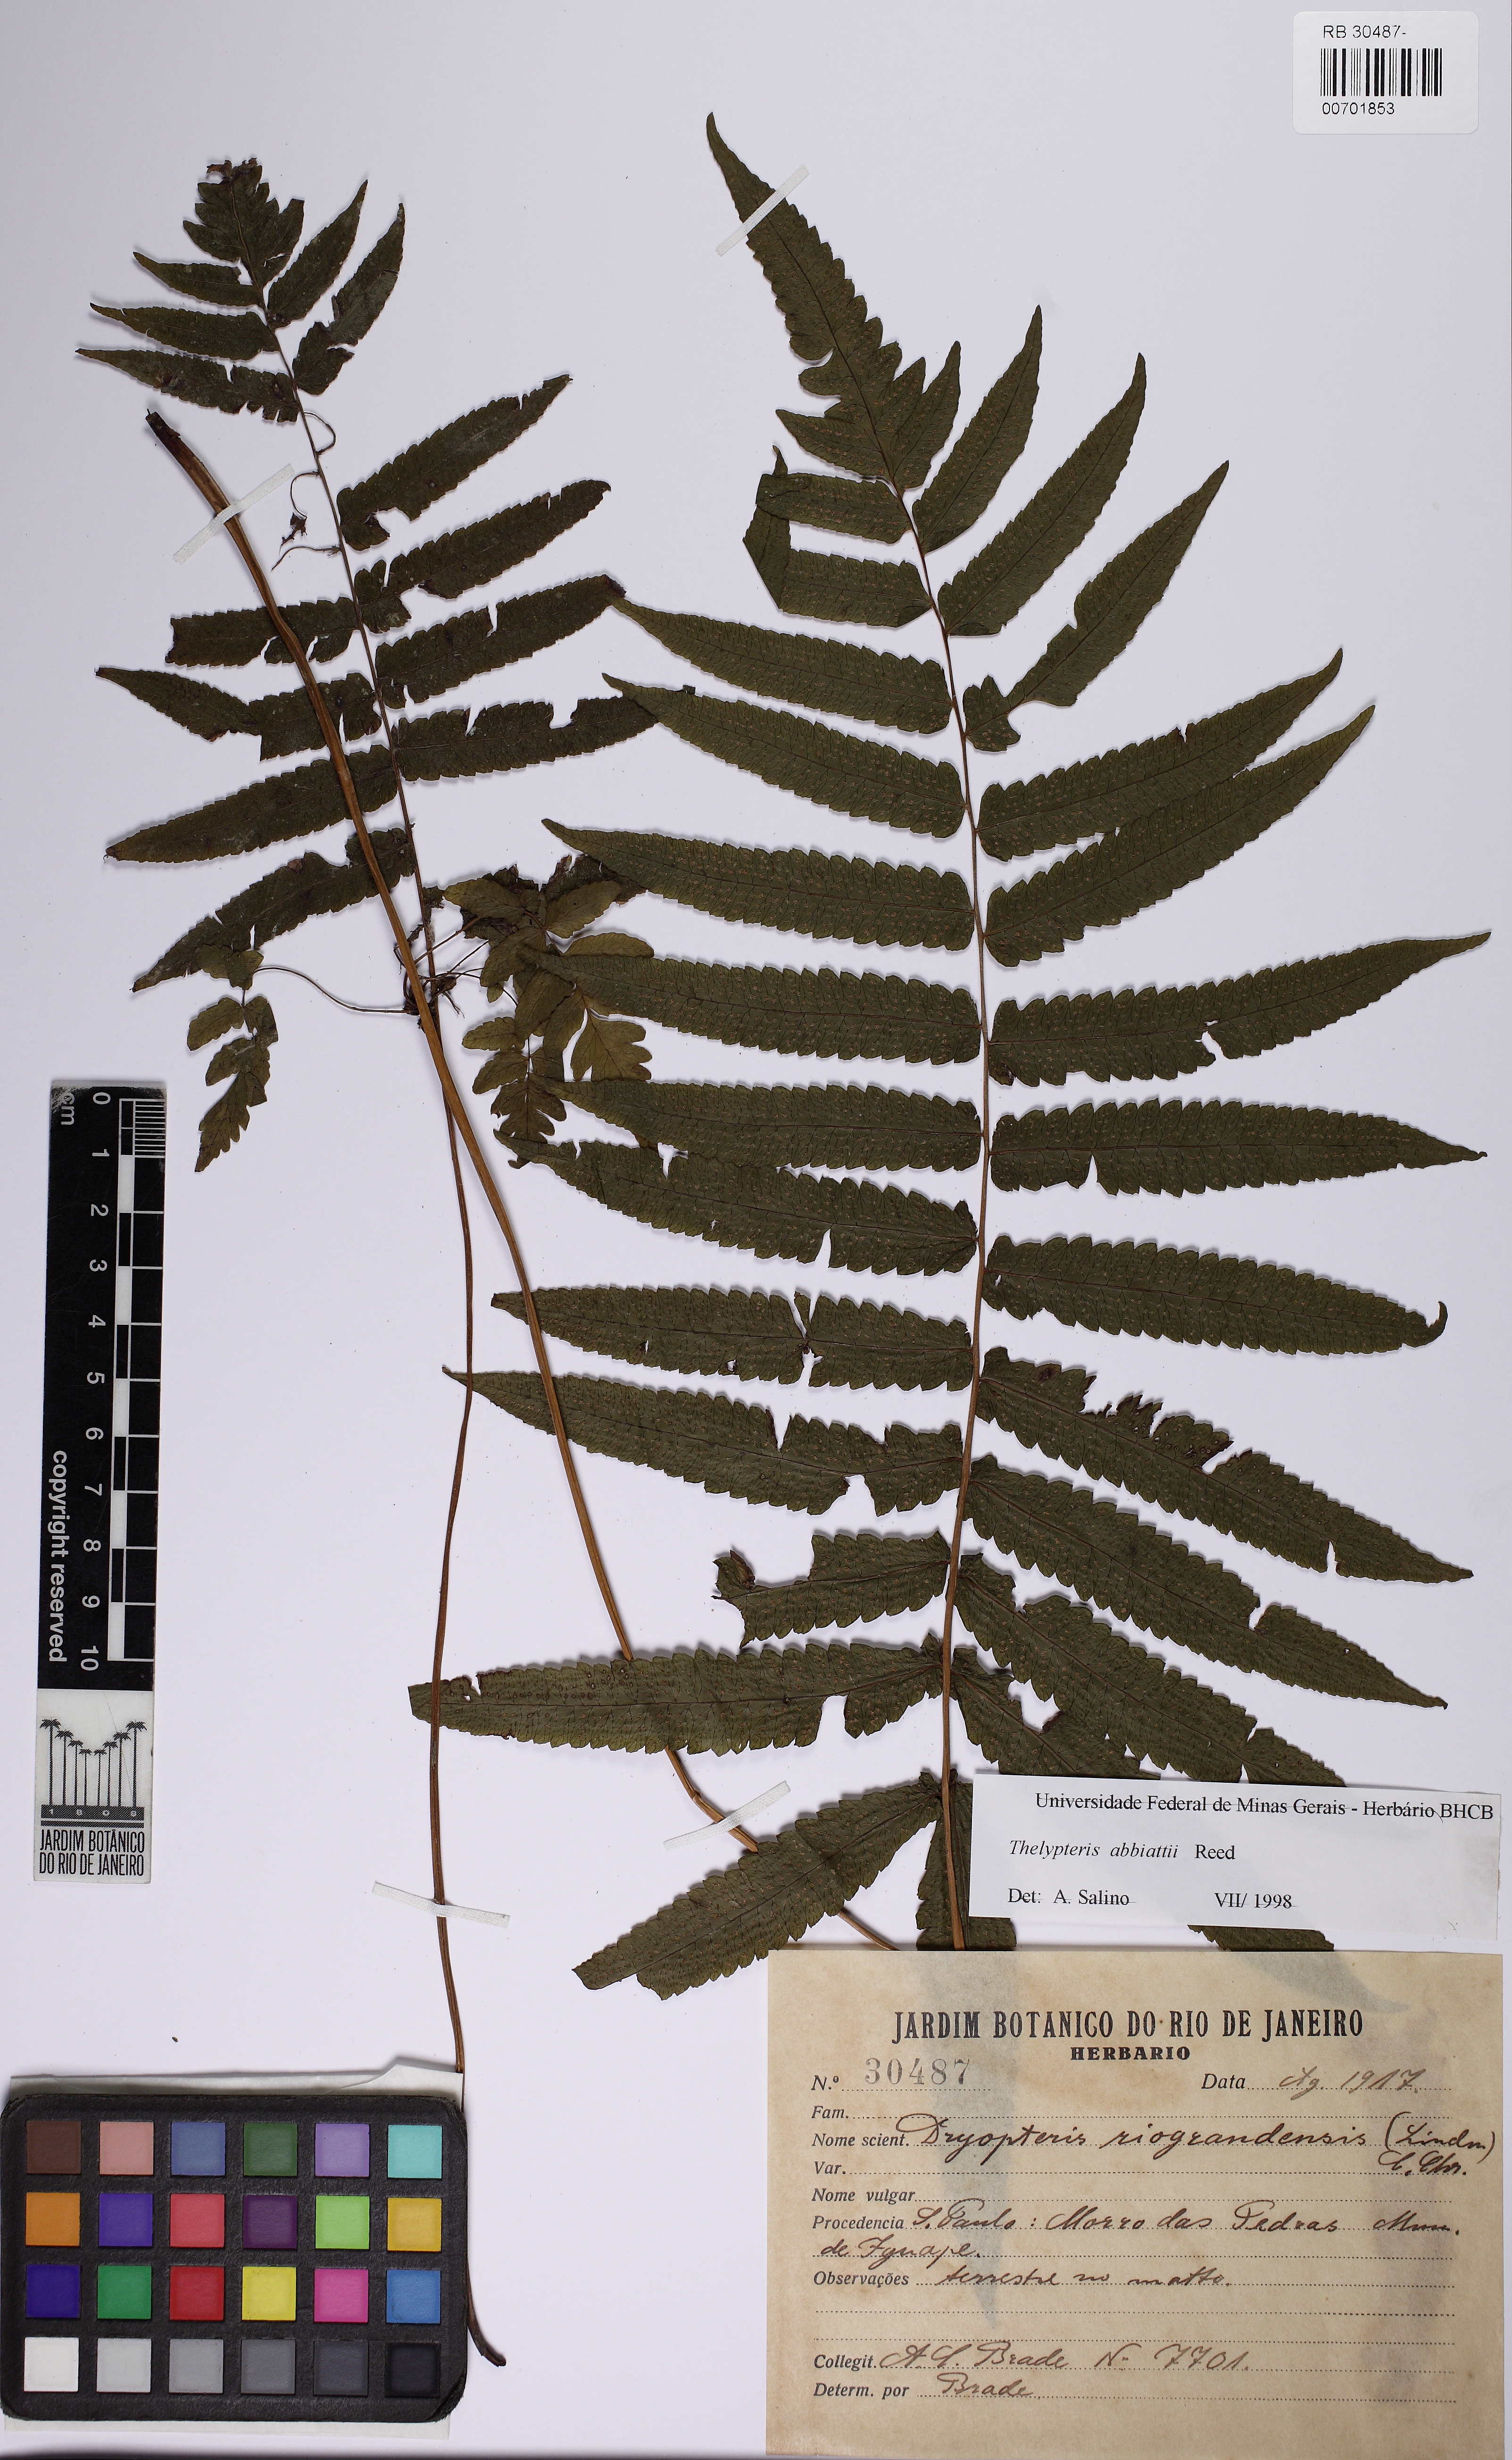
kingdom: Plantae
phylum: Tracheophyta
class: Polypodiopsida
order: Polypodiales
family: Thelypteridaceae
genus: Goniopteris
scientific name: Goniopteris burkartii
